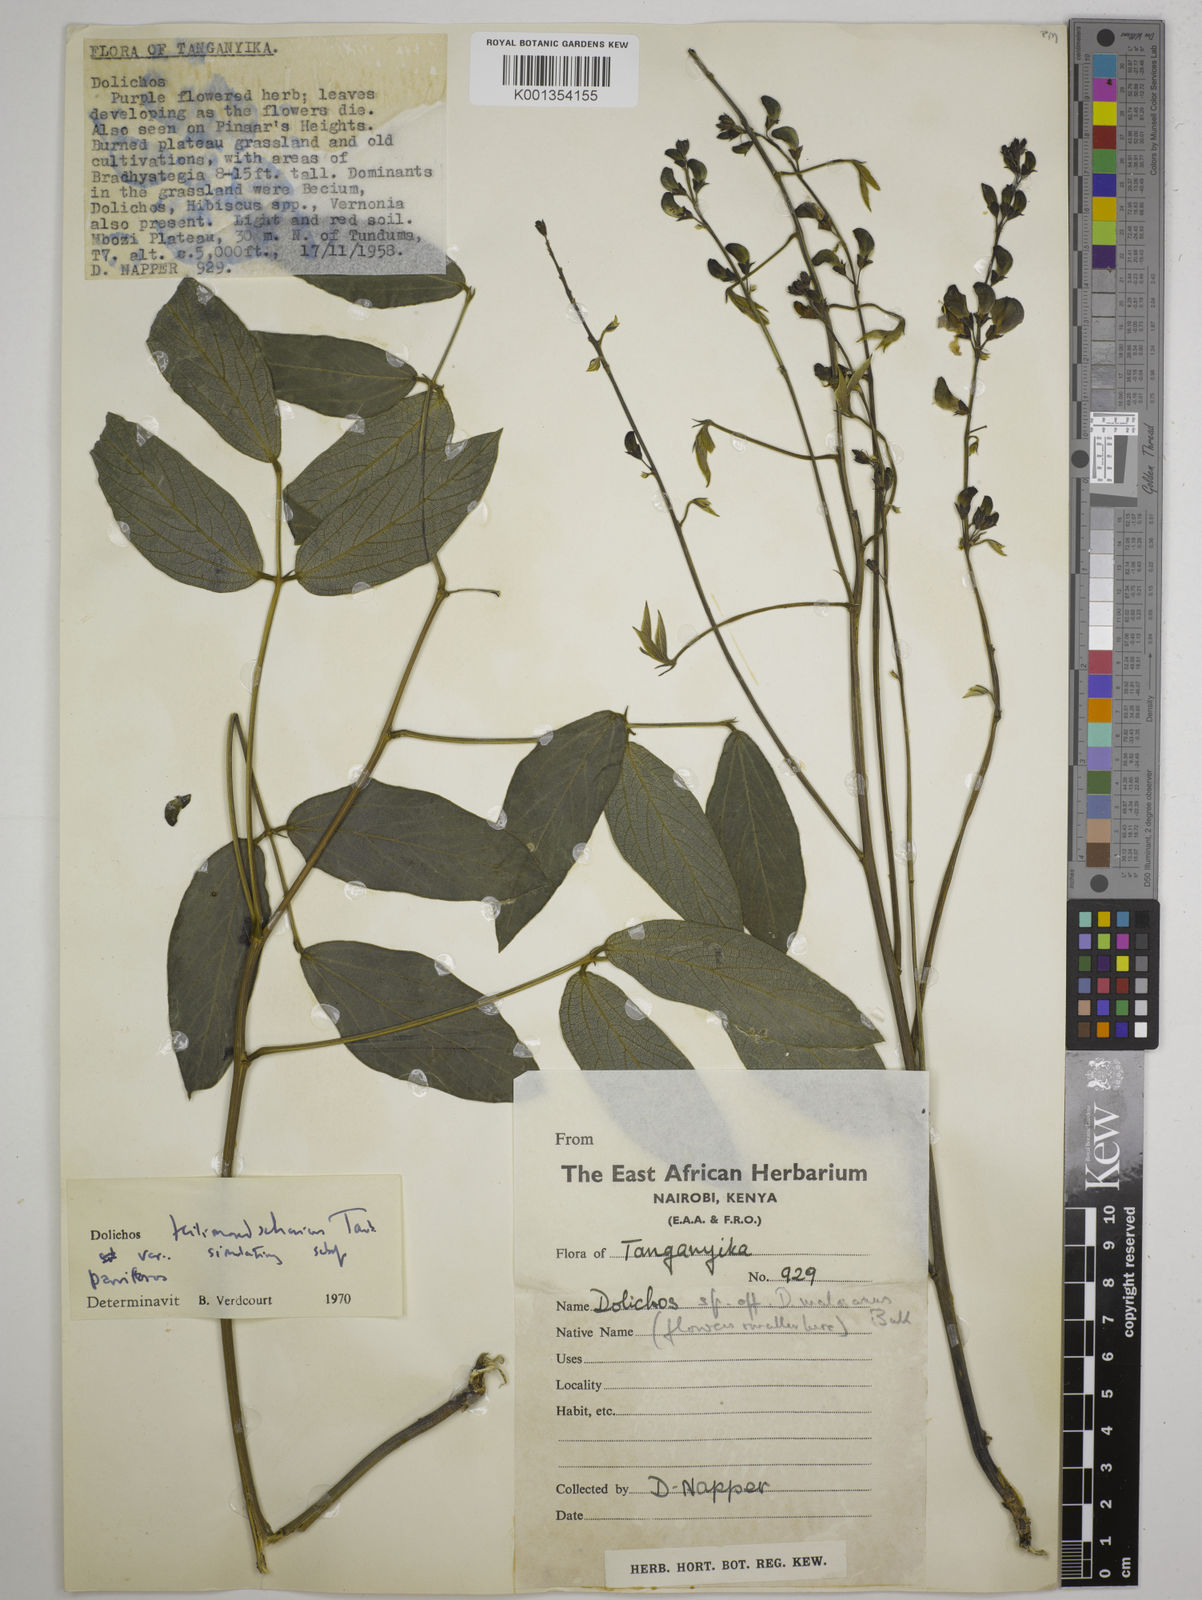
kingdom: Plantae
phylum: Tracheophyta
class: Magnoliopsida
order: Fabales
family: Fabaceae
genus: Dolichos
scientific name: Dolichos
